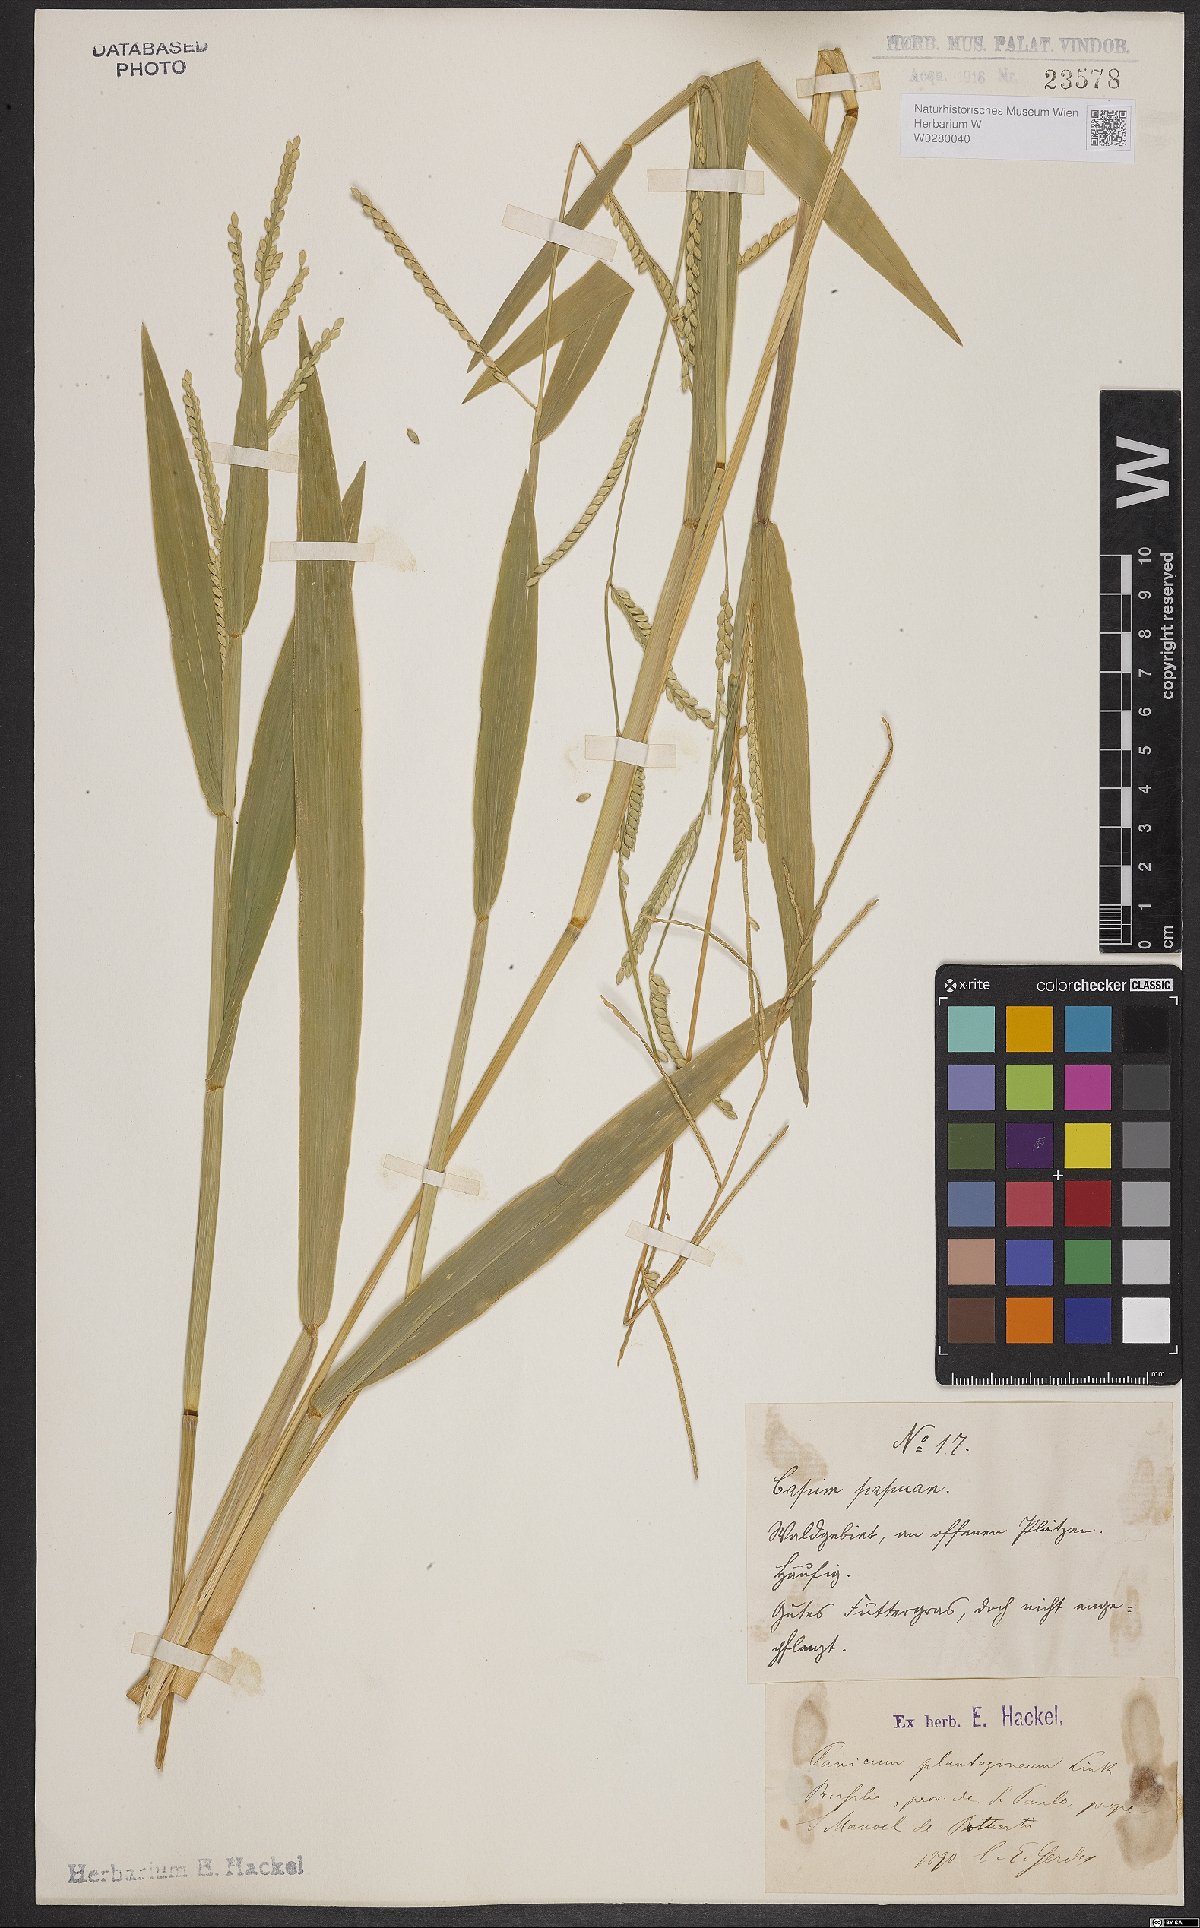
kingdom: Plantae
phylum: Tracheophyta
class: Liliopsida
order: Poales
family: Poaceae
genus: Urochloa
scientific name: Urochloa plantaginea
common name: Plantain signalgrass
